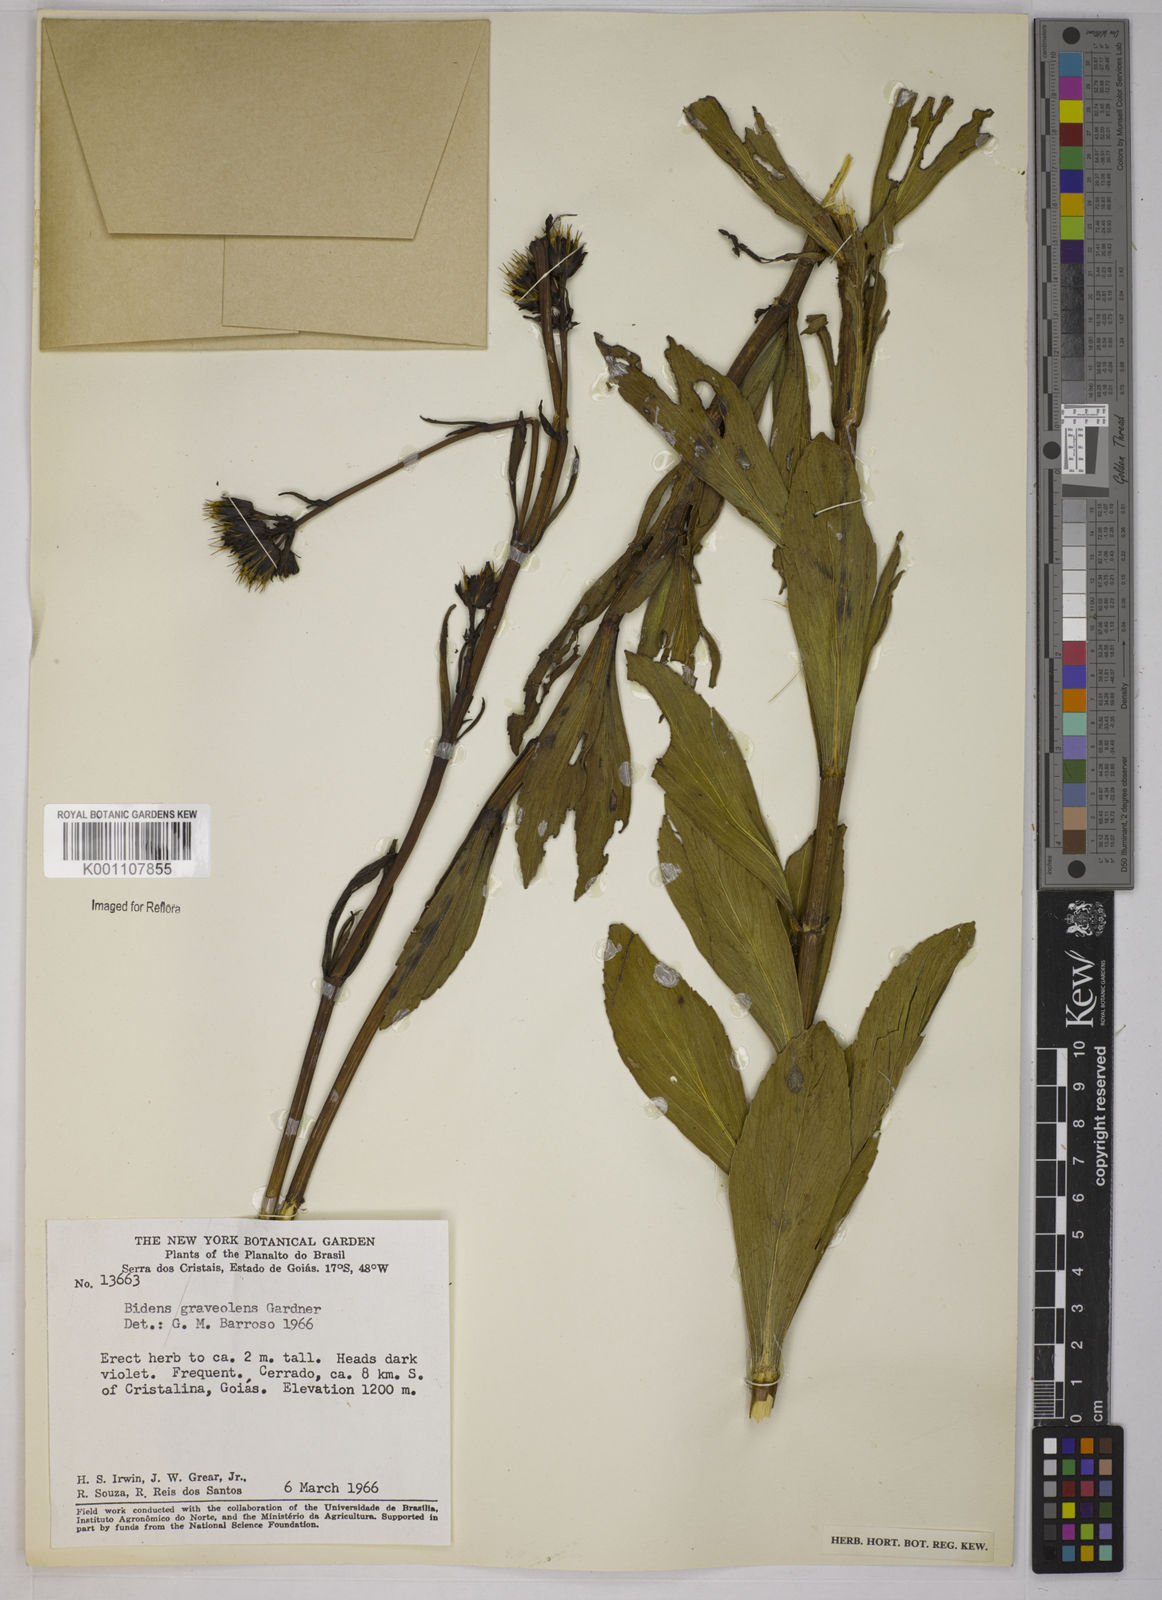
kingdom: Plantae
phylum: Tracheophyta
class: Magnoliopsida
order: Asterales
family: Asteraceae
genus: Bidens
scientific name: Bidens
